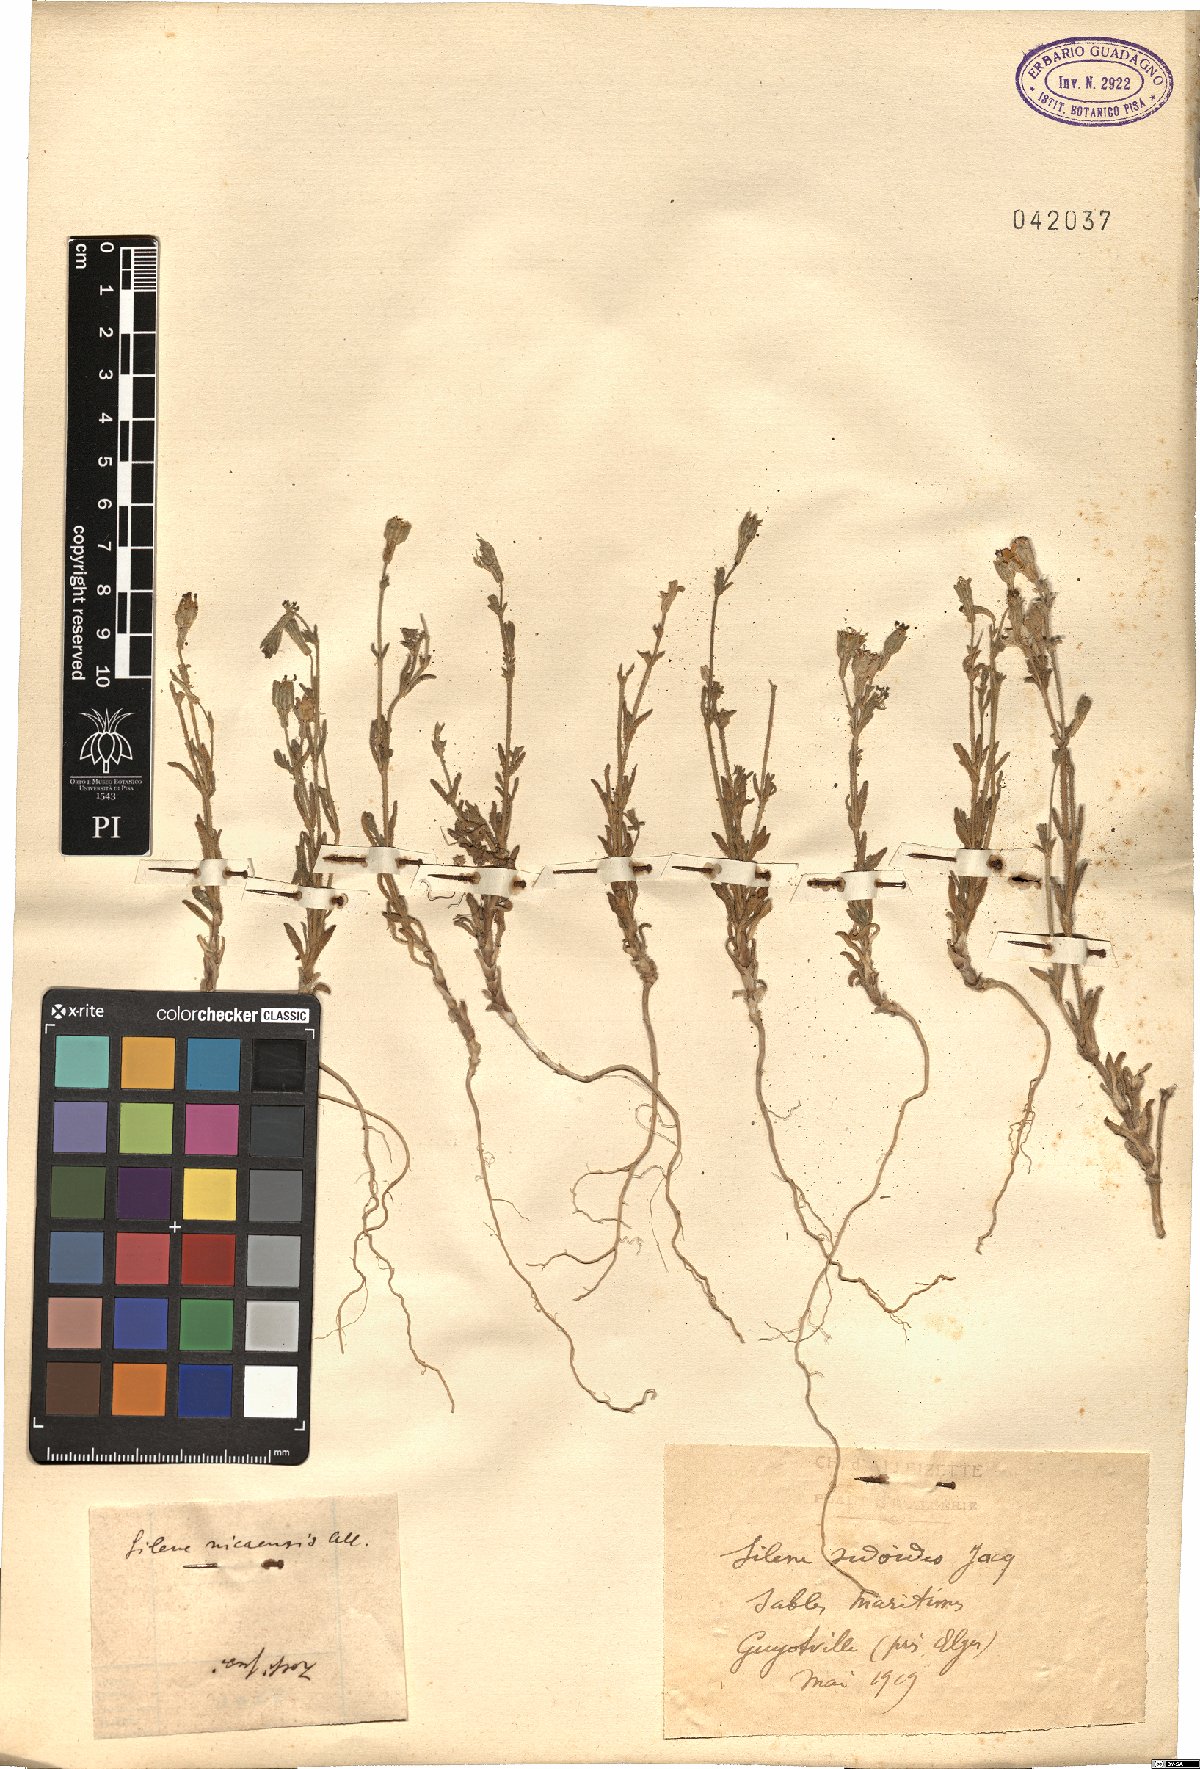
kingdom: Plantae
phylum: Tracheophyta
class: Magnoliopsida
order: Caryophyllales
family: Caryophyllaceae
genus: Silene
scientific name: Silene sedoides
